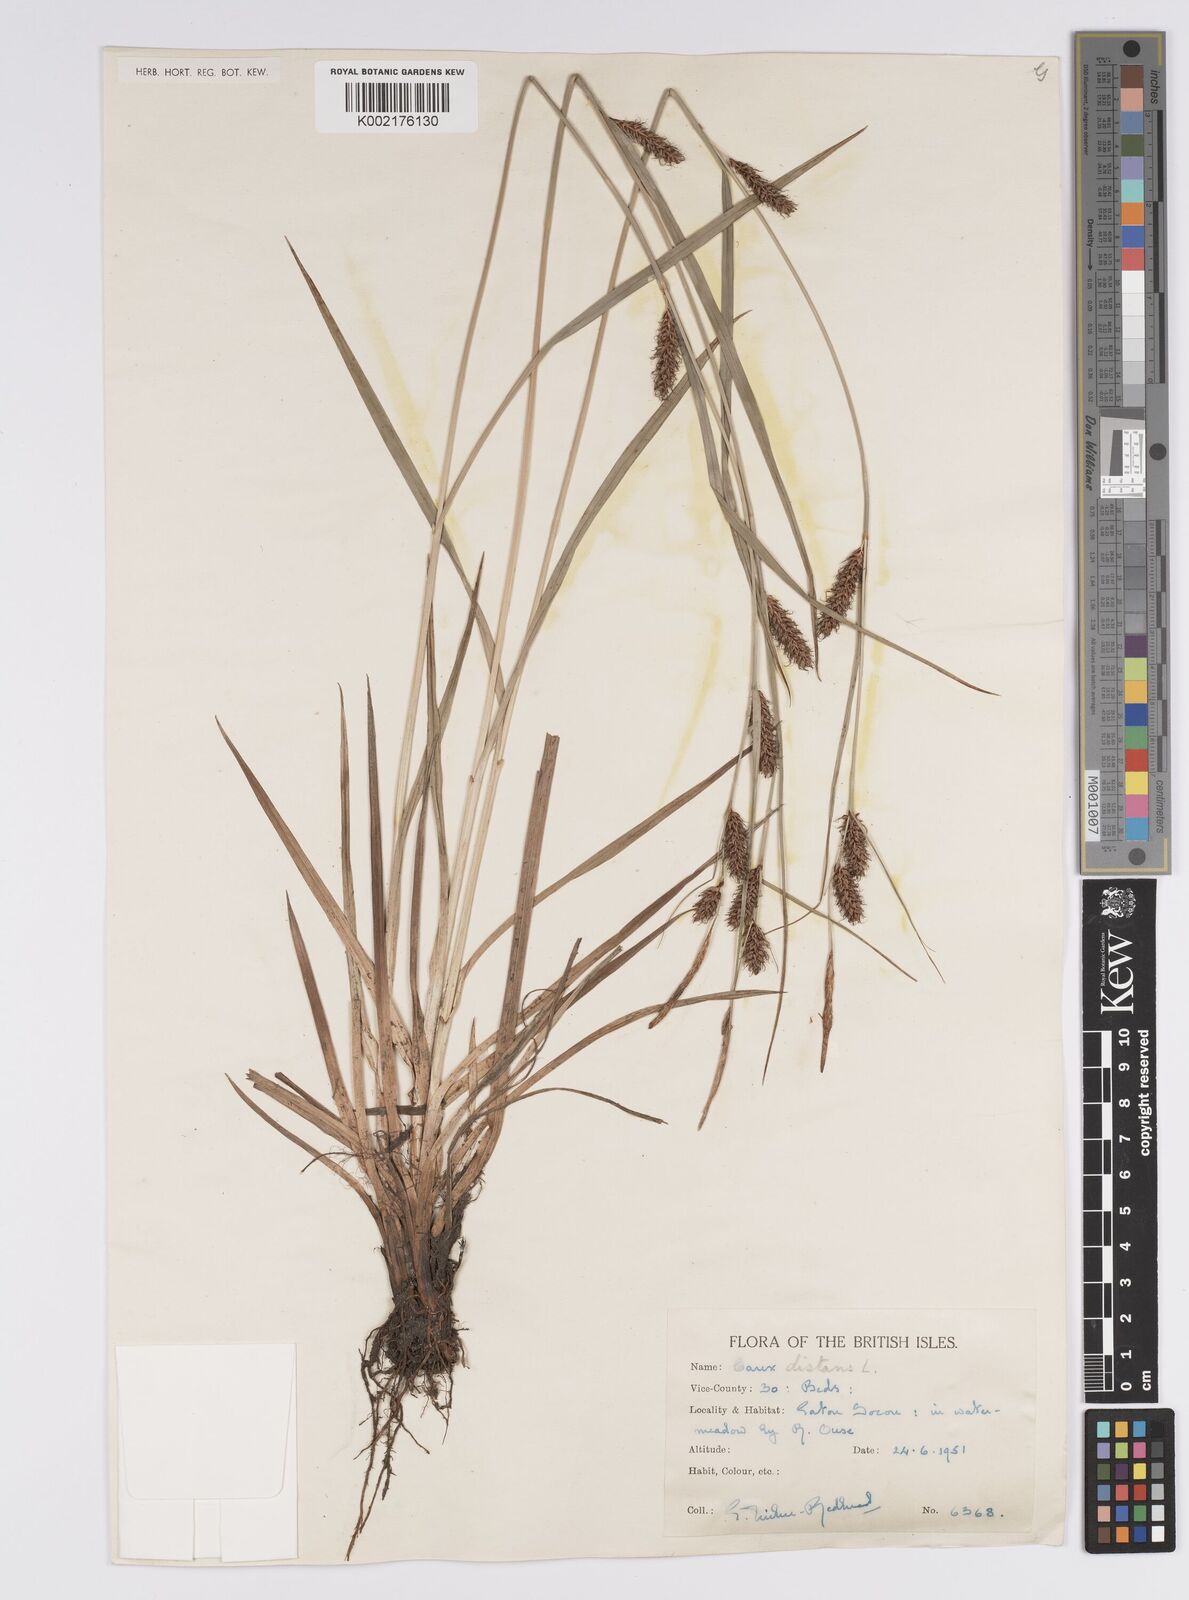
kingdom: Plantae
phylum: Tracheophyta
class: Liliopsida
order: Poales
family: Cyperaceae
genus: Carex
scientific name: Carex distans
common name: Distant sedge
